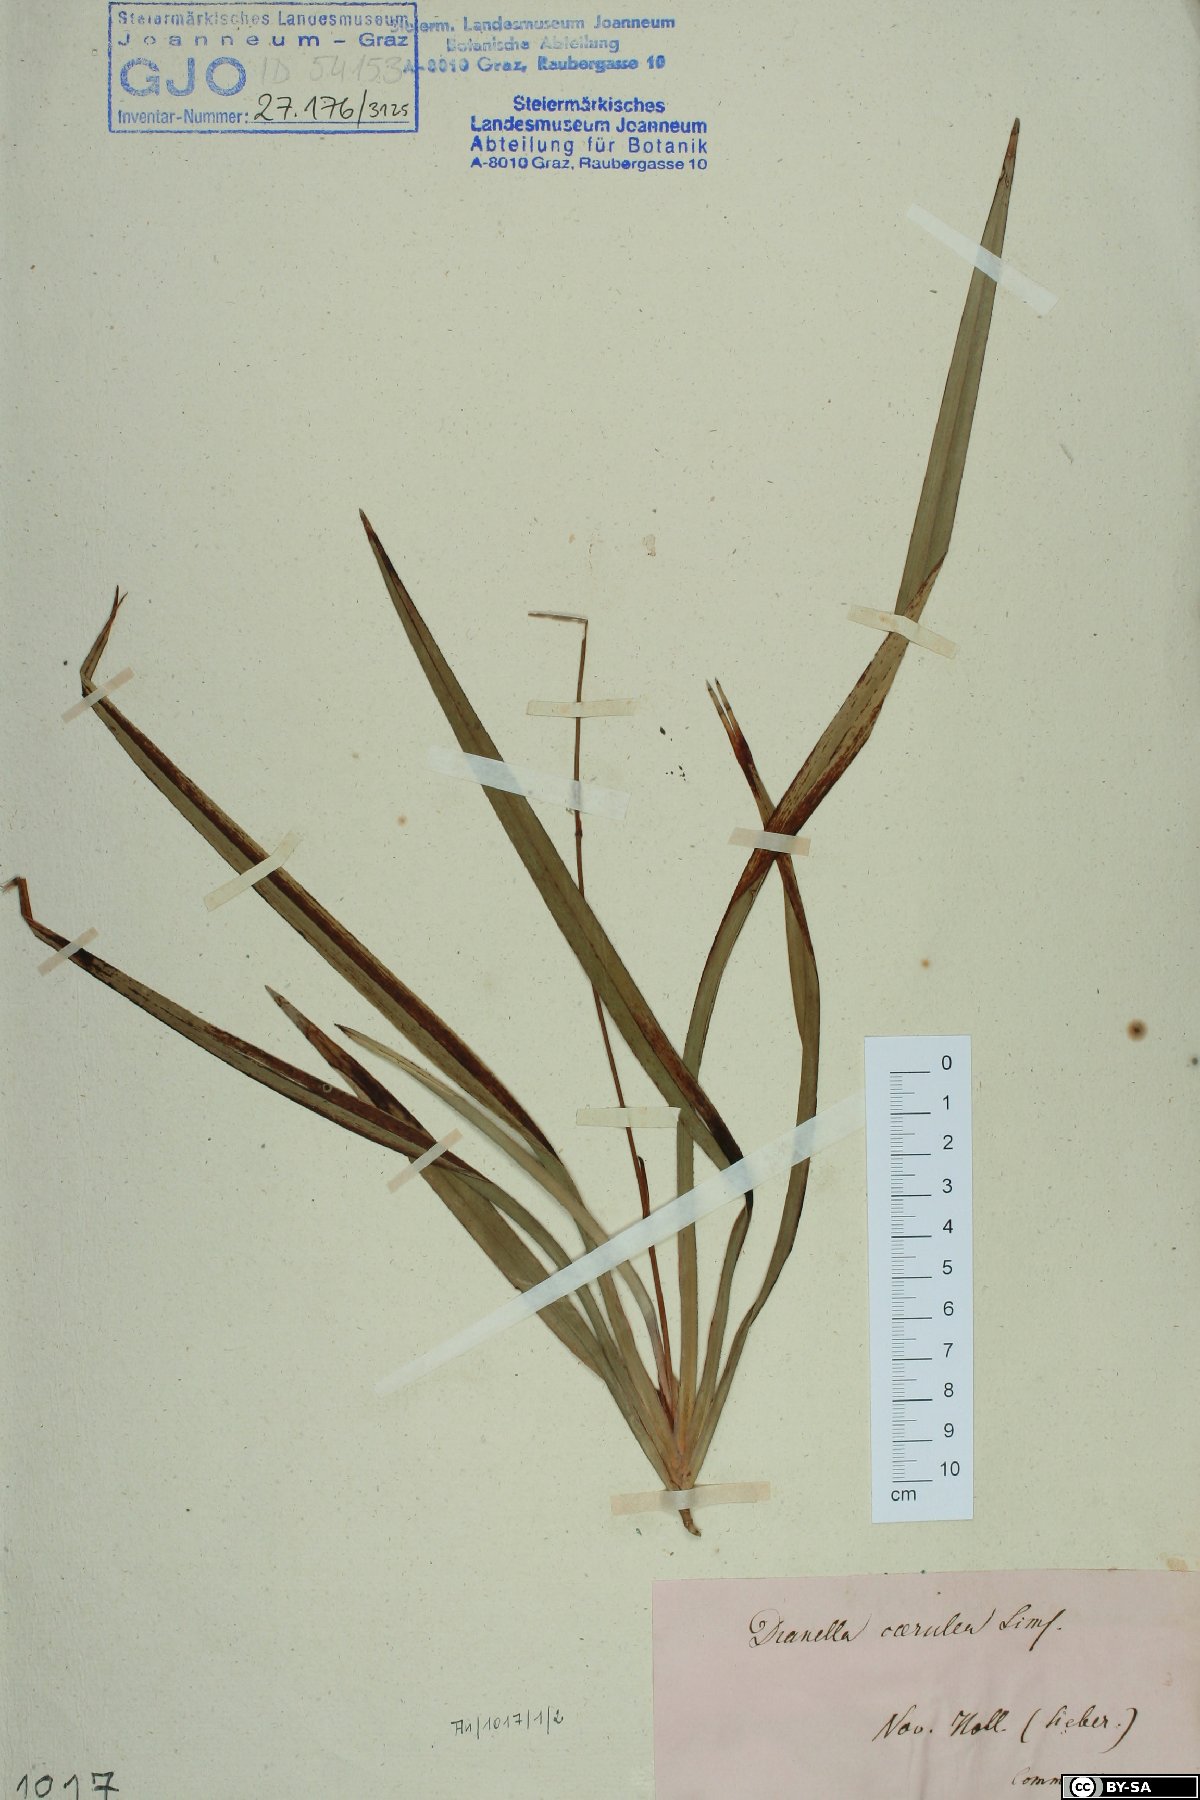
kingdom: Plantae
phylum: Tracheophyta
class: Liliopsida
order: Asparagales
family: Asphodelaceae
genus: Dianella
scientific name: Dianella caerulea
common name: Blue flax-lily
